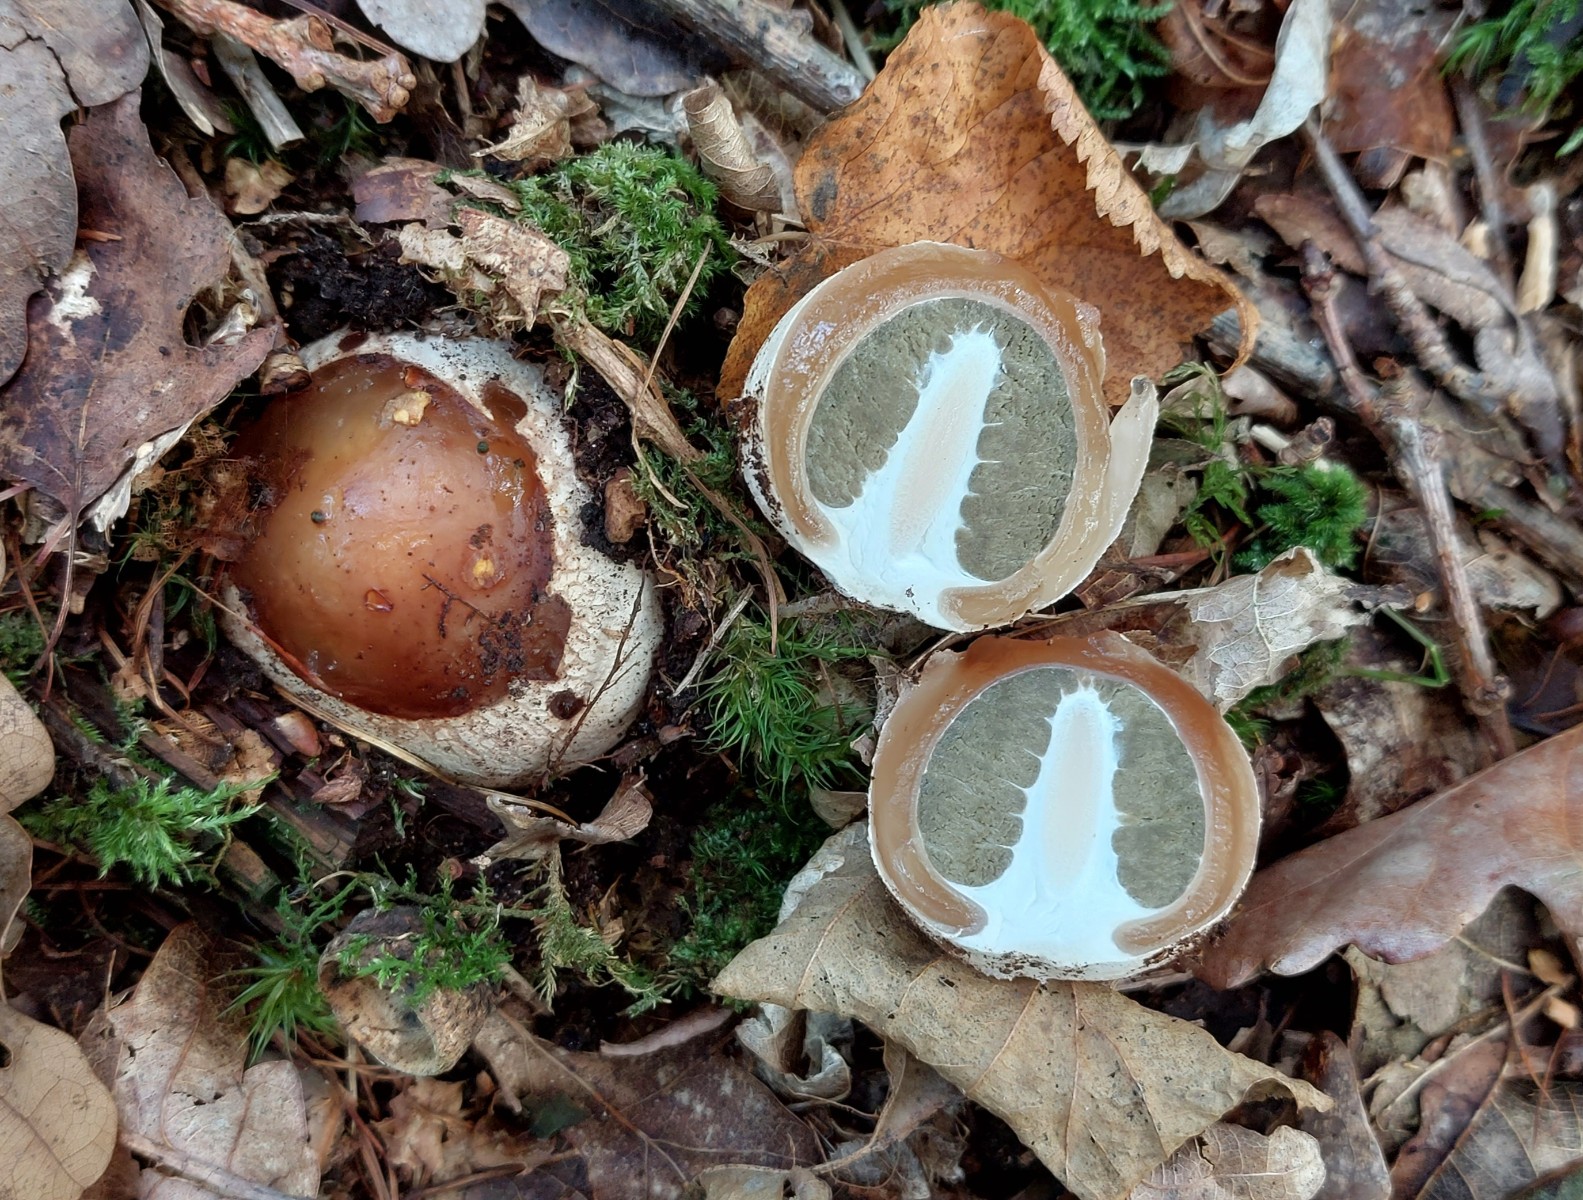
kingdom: Fungi
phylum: Basidiomycota
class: Agaricomycetes
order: Phallales
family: Phallaceae
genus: Phallus
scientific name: Phallus impudicus
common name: almindelig stinksvamp
